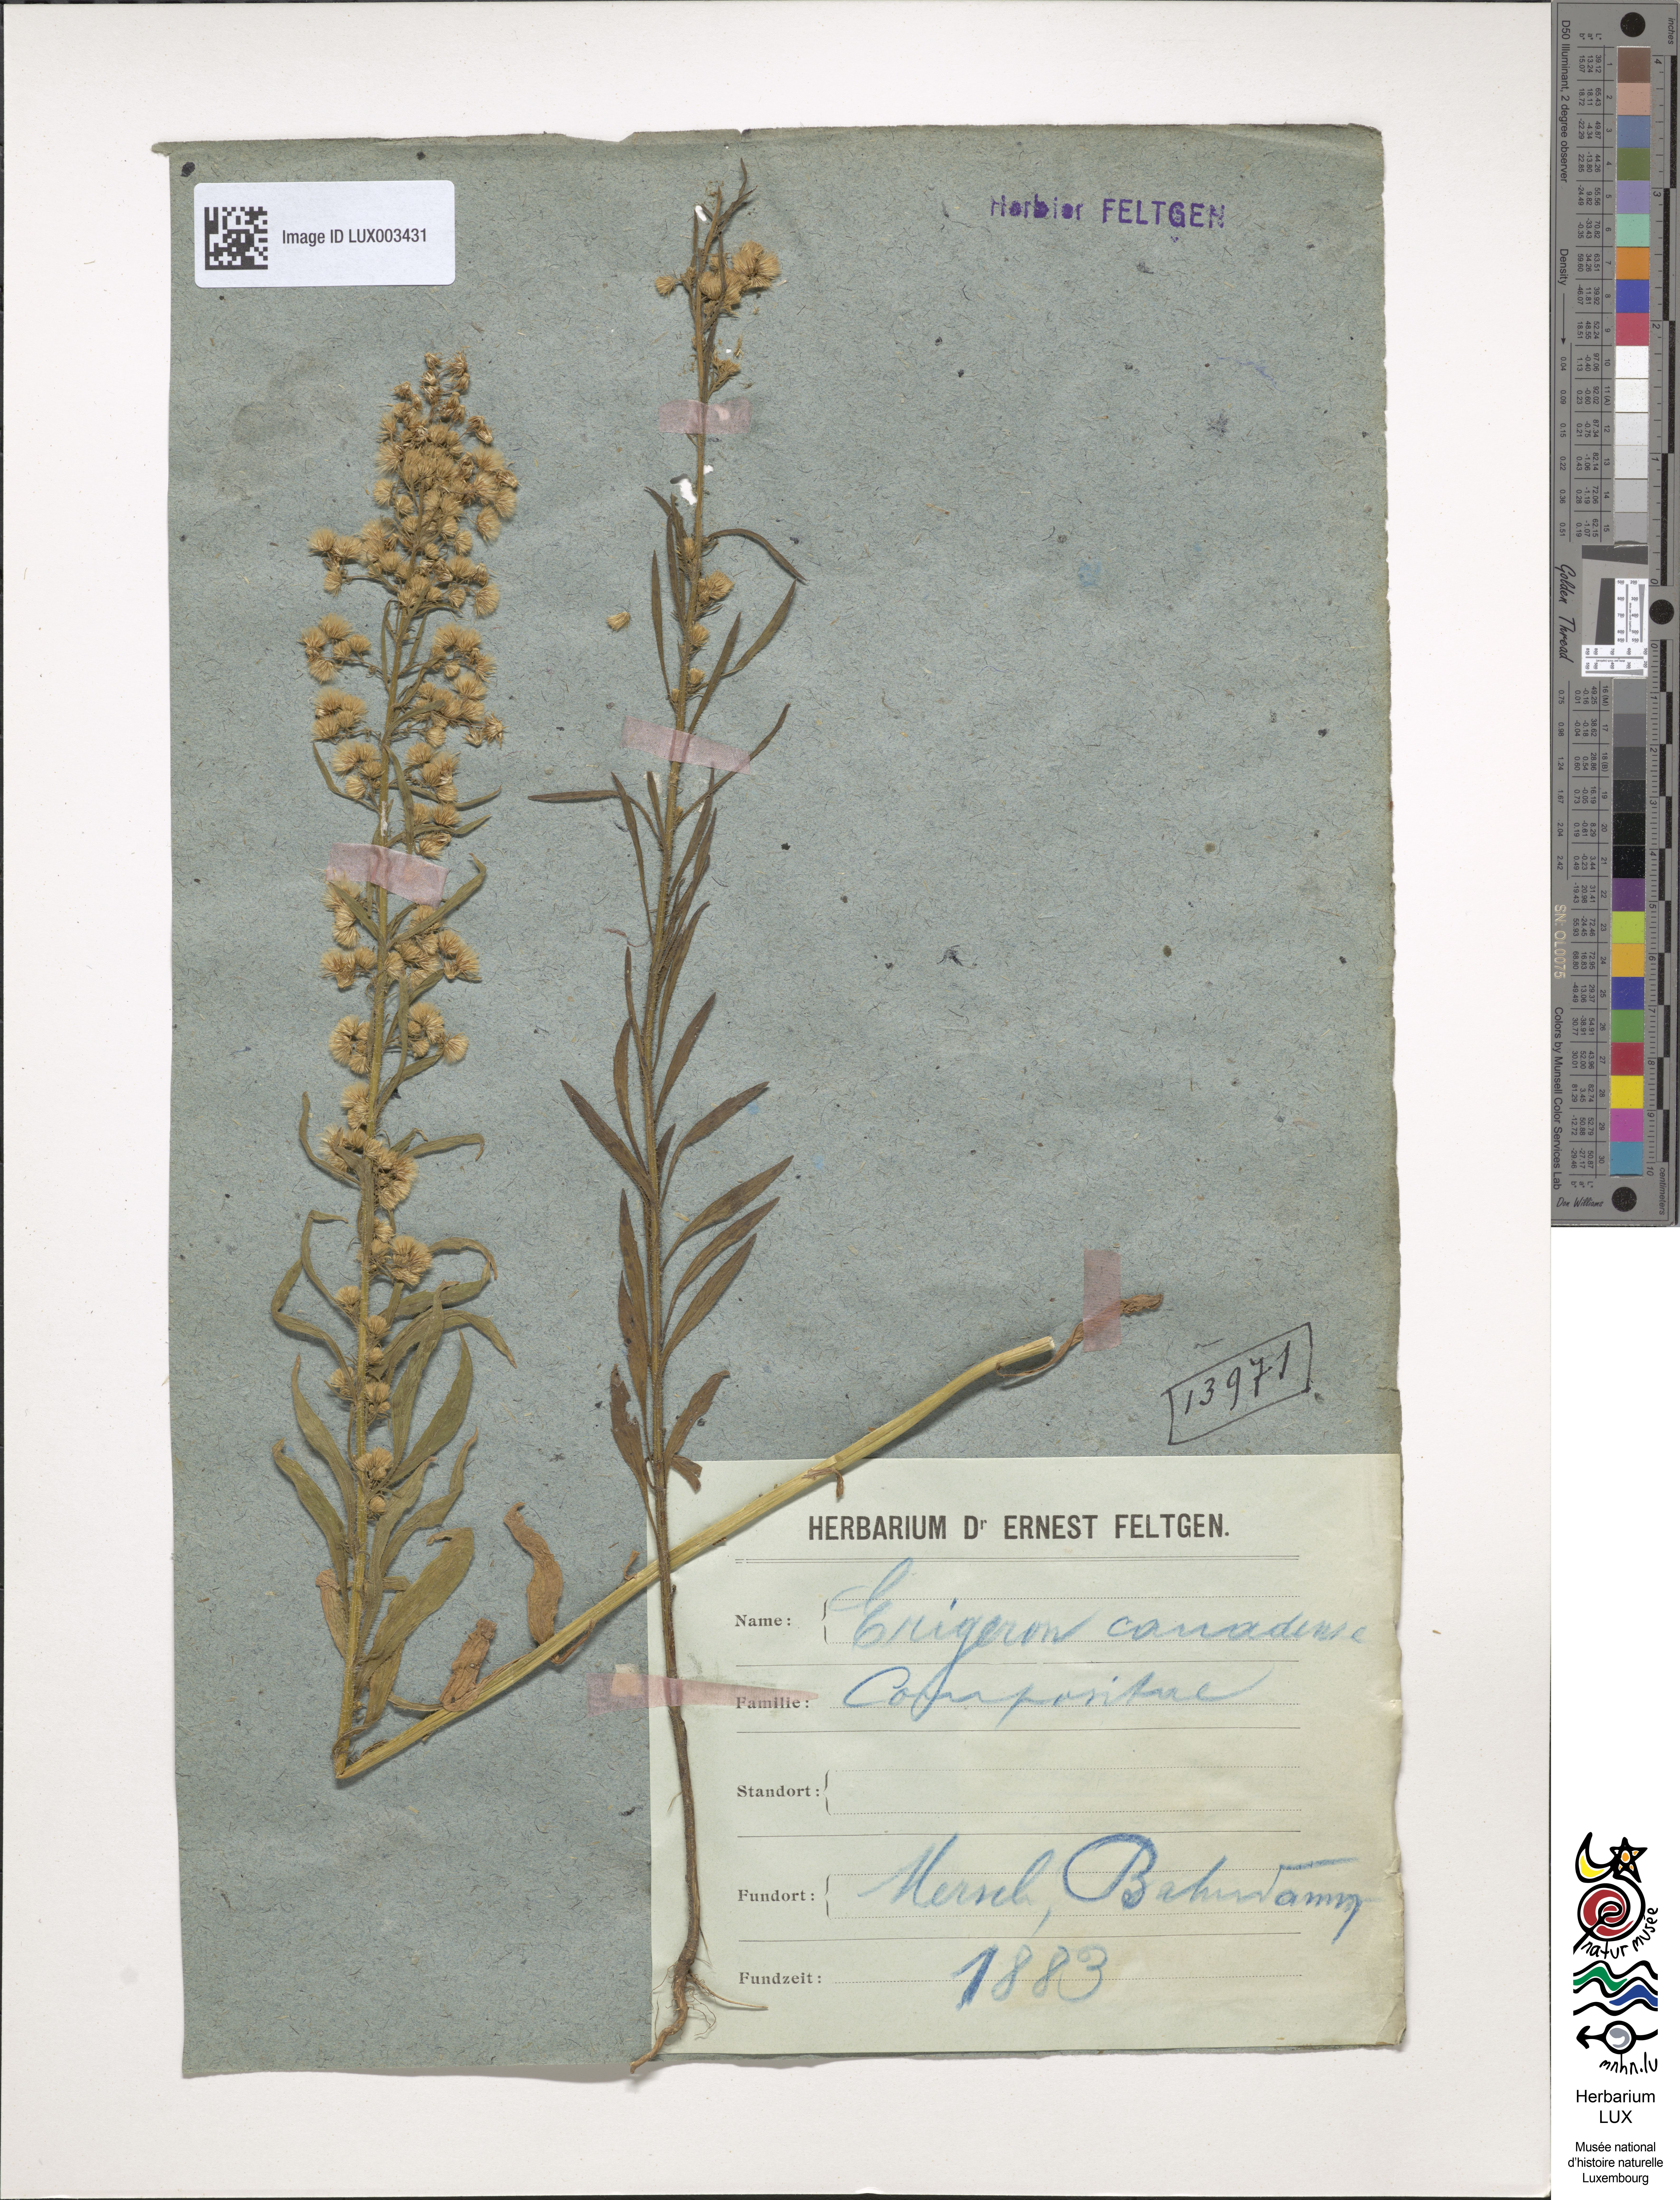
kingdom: Plantae
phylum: Tracheophyta
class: Magnoliopsida
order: Asterales
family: Asteraceae
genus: Erigeron
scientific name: Erigeron canadensis
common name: Canadian fleabane
